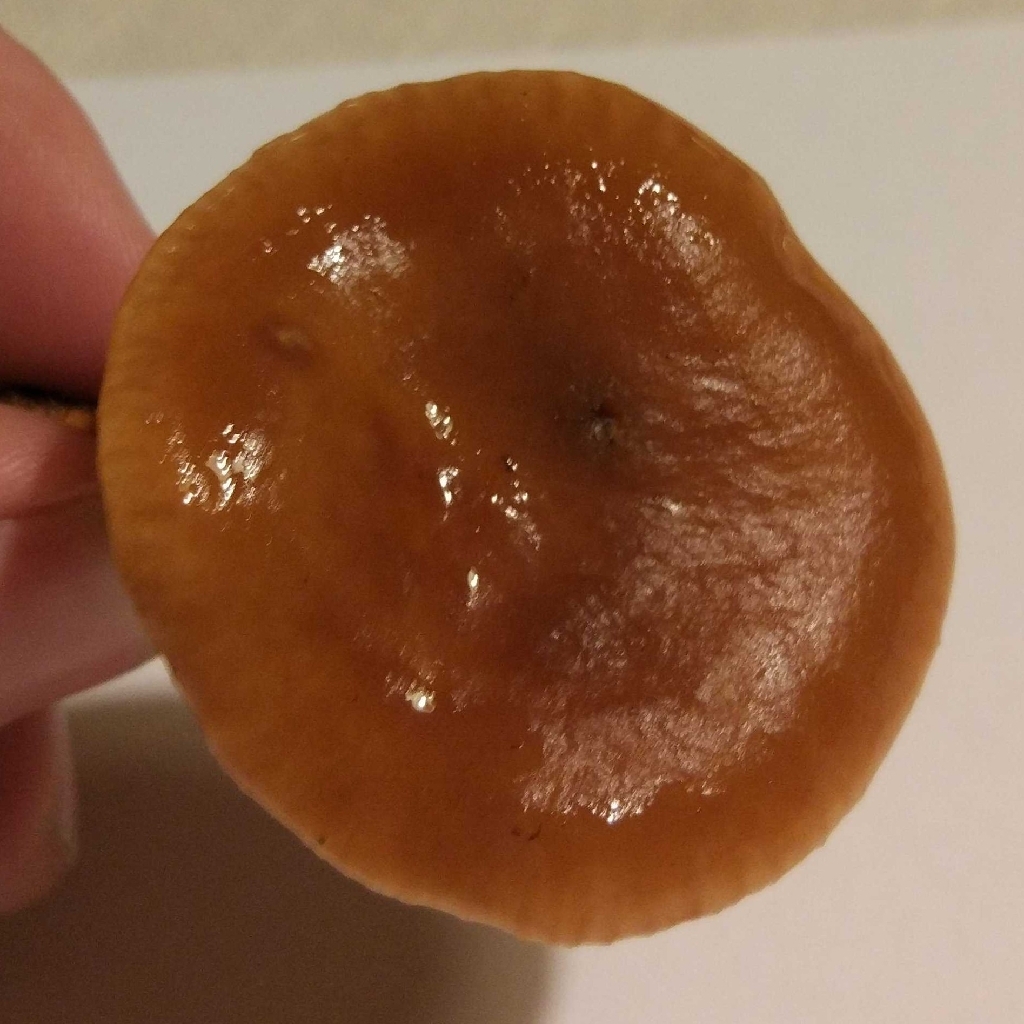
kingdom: Fungi
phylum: Basidiomycota
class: Agaricomycetes
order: Russulales
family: Russulaceae
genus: Lactarius
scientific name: Lactarius
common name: mælkehat
